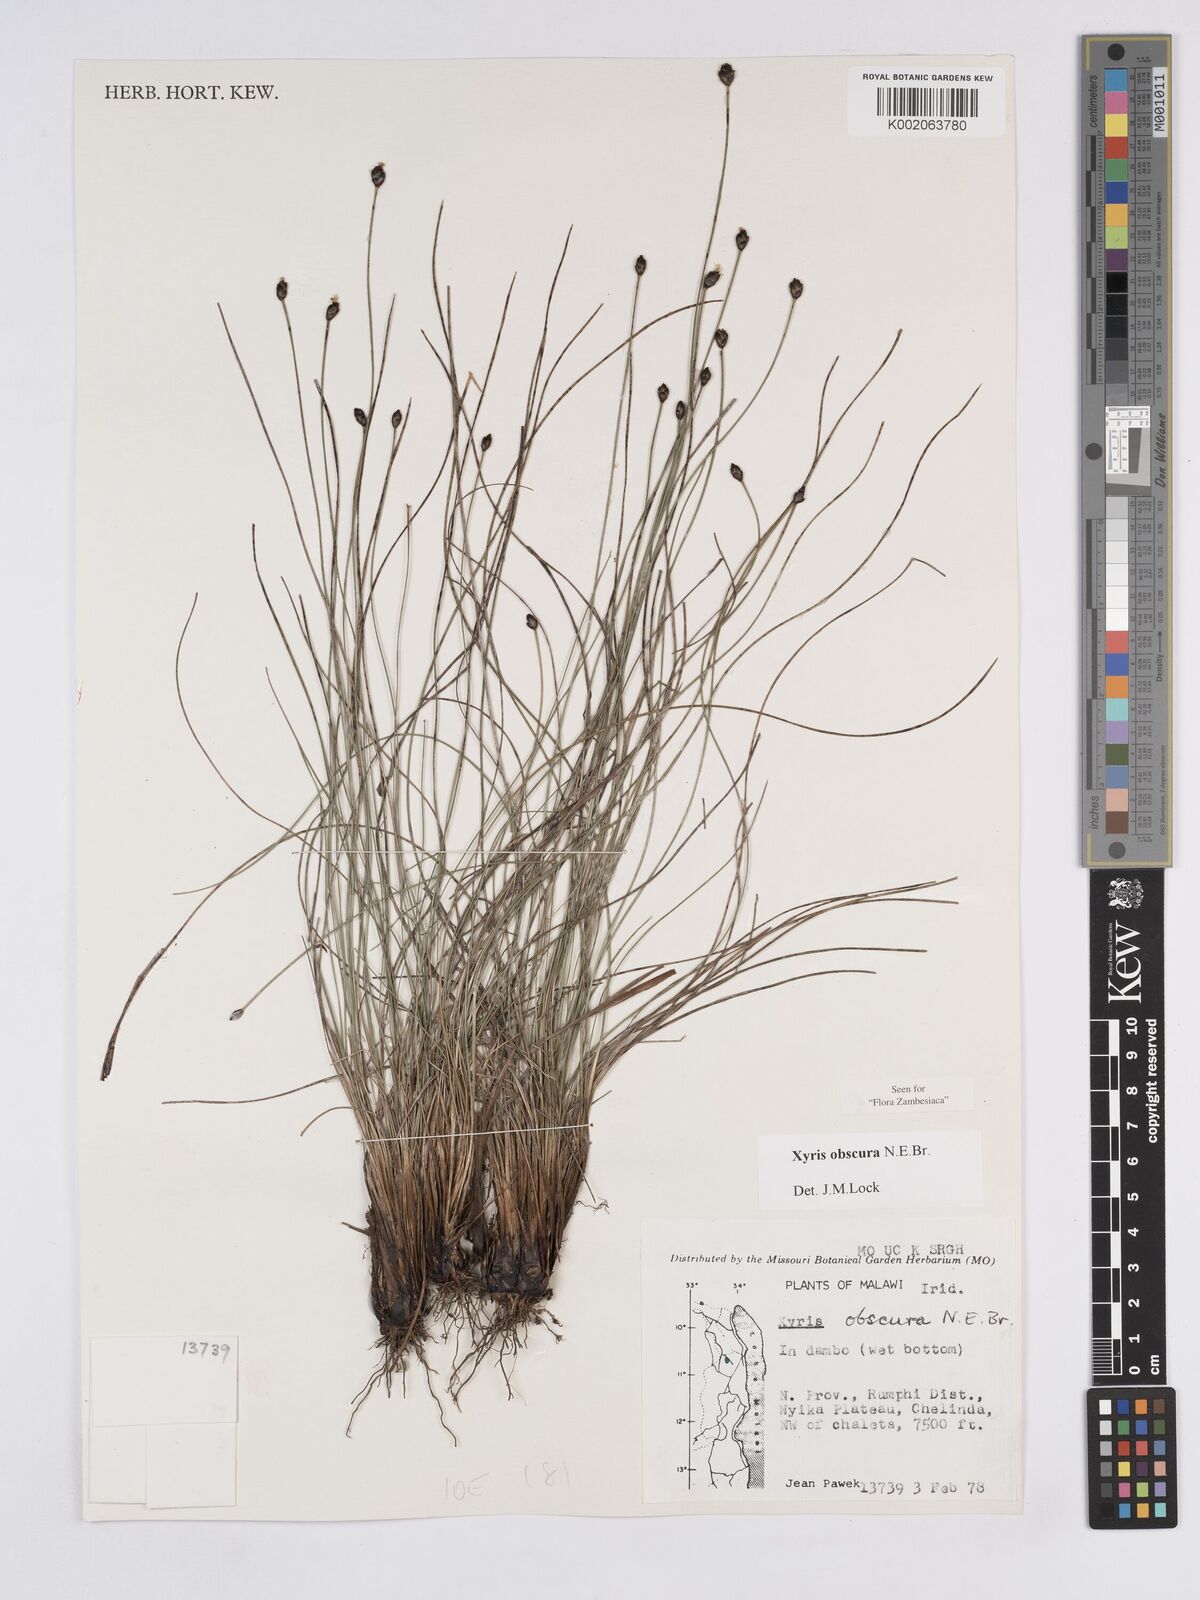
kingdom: Plantae
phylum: Tracheophyta
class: Liliopsida
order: Poales
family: Xyridaceae
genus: Xyris
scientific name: Xyris obscura
